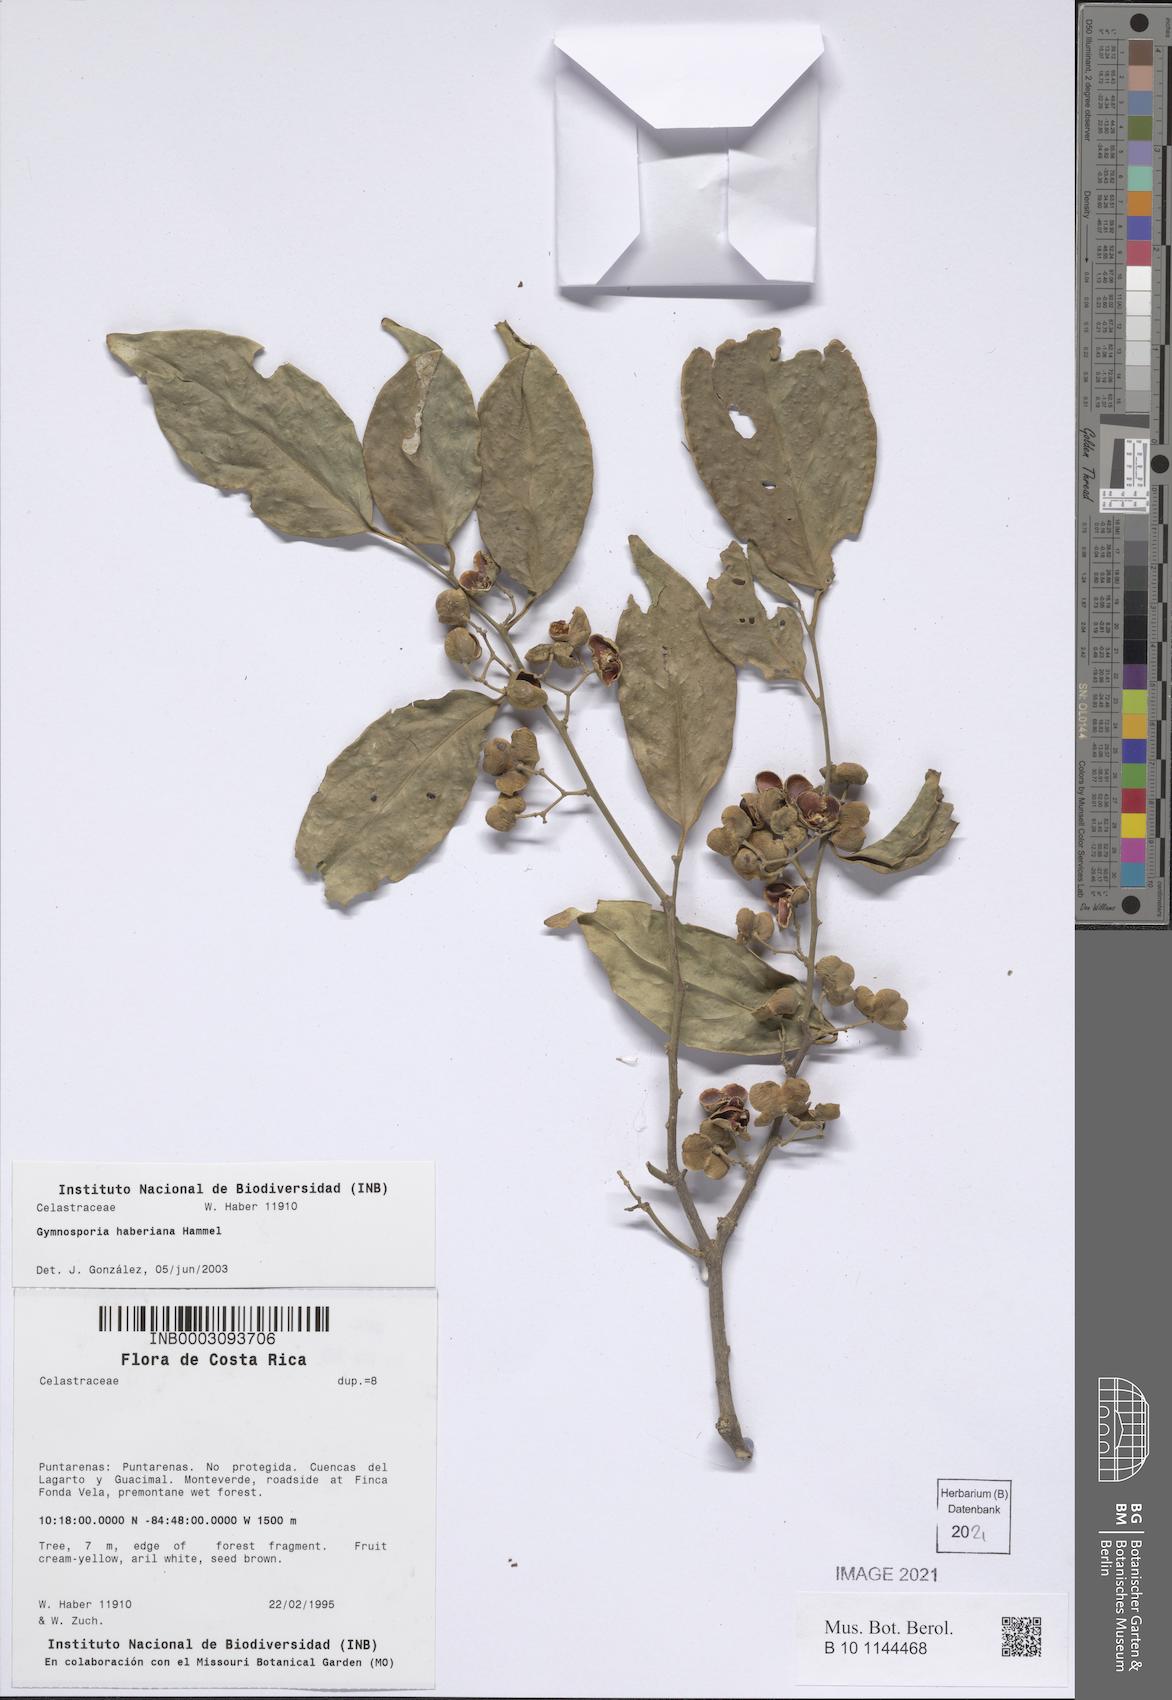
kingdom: Plantae
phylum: Tracheophyta
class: Magnoliopsida
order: Celastrales
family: Celastraceae
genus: Gymnosporia
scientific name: Gymnosporia
